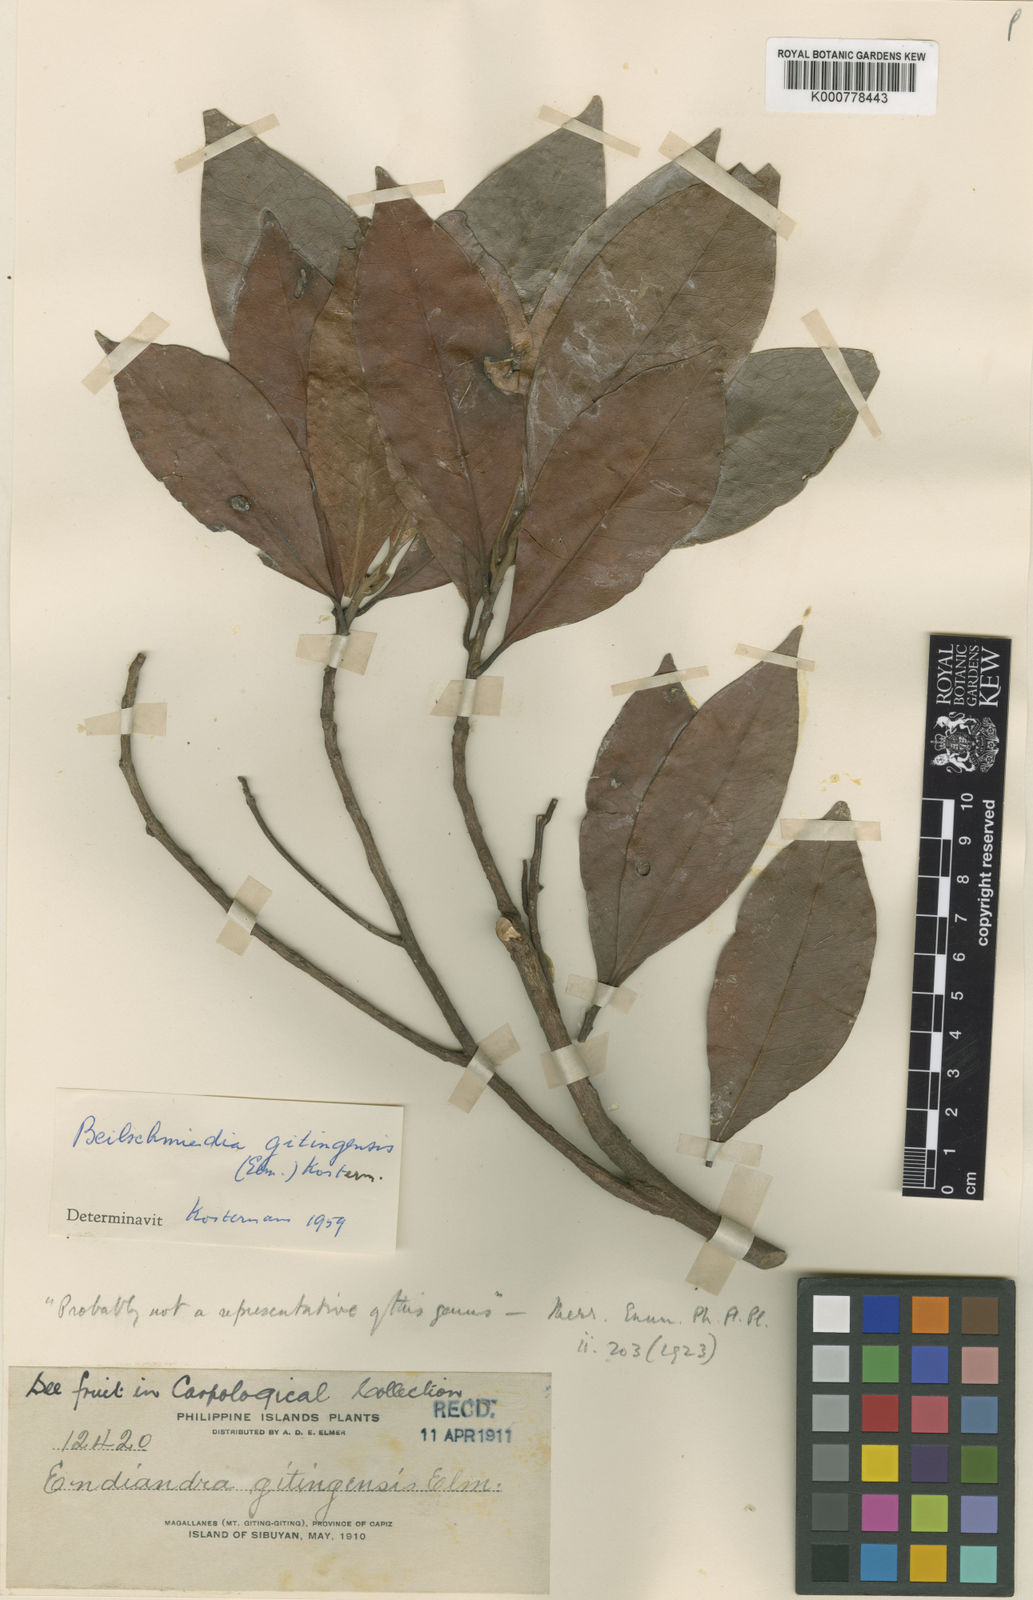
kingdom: Plantae
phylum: Tracheophyta
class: Magnoliopsida
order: Laurales
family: Lauraceae
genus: Beilschmiedia
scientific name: Beilschmiedia gitingensis
